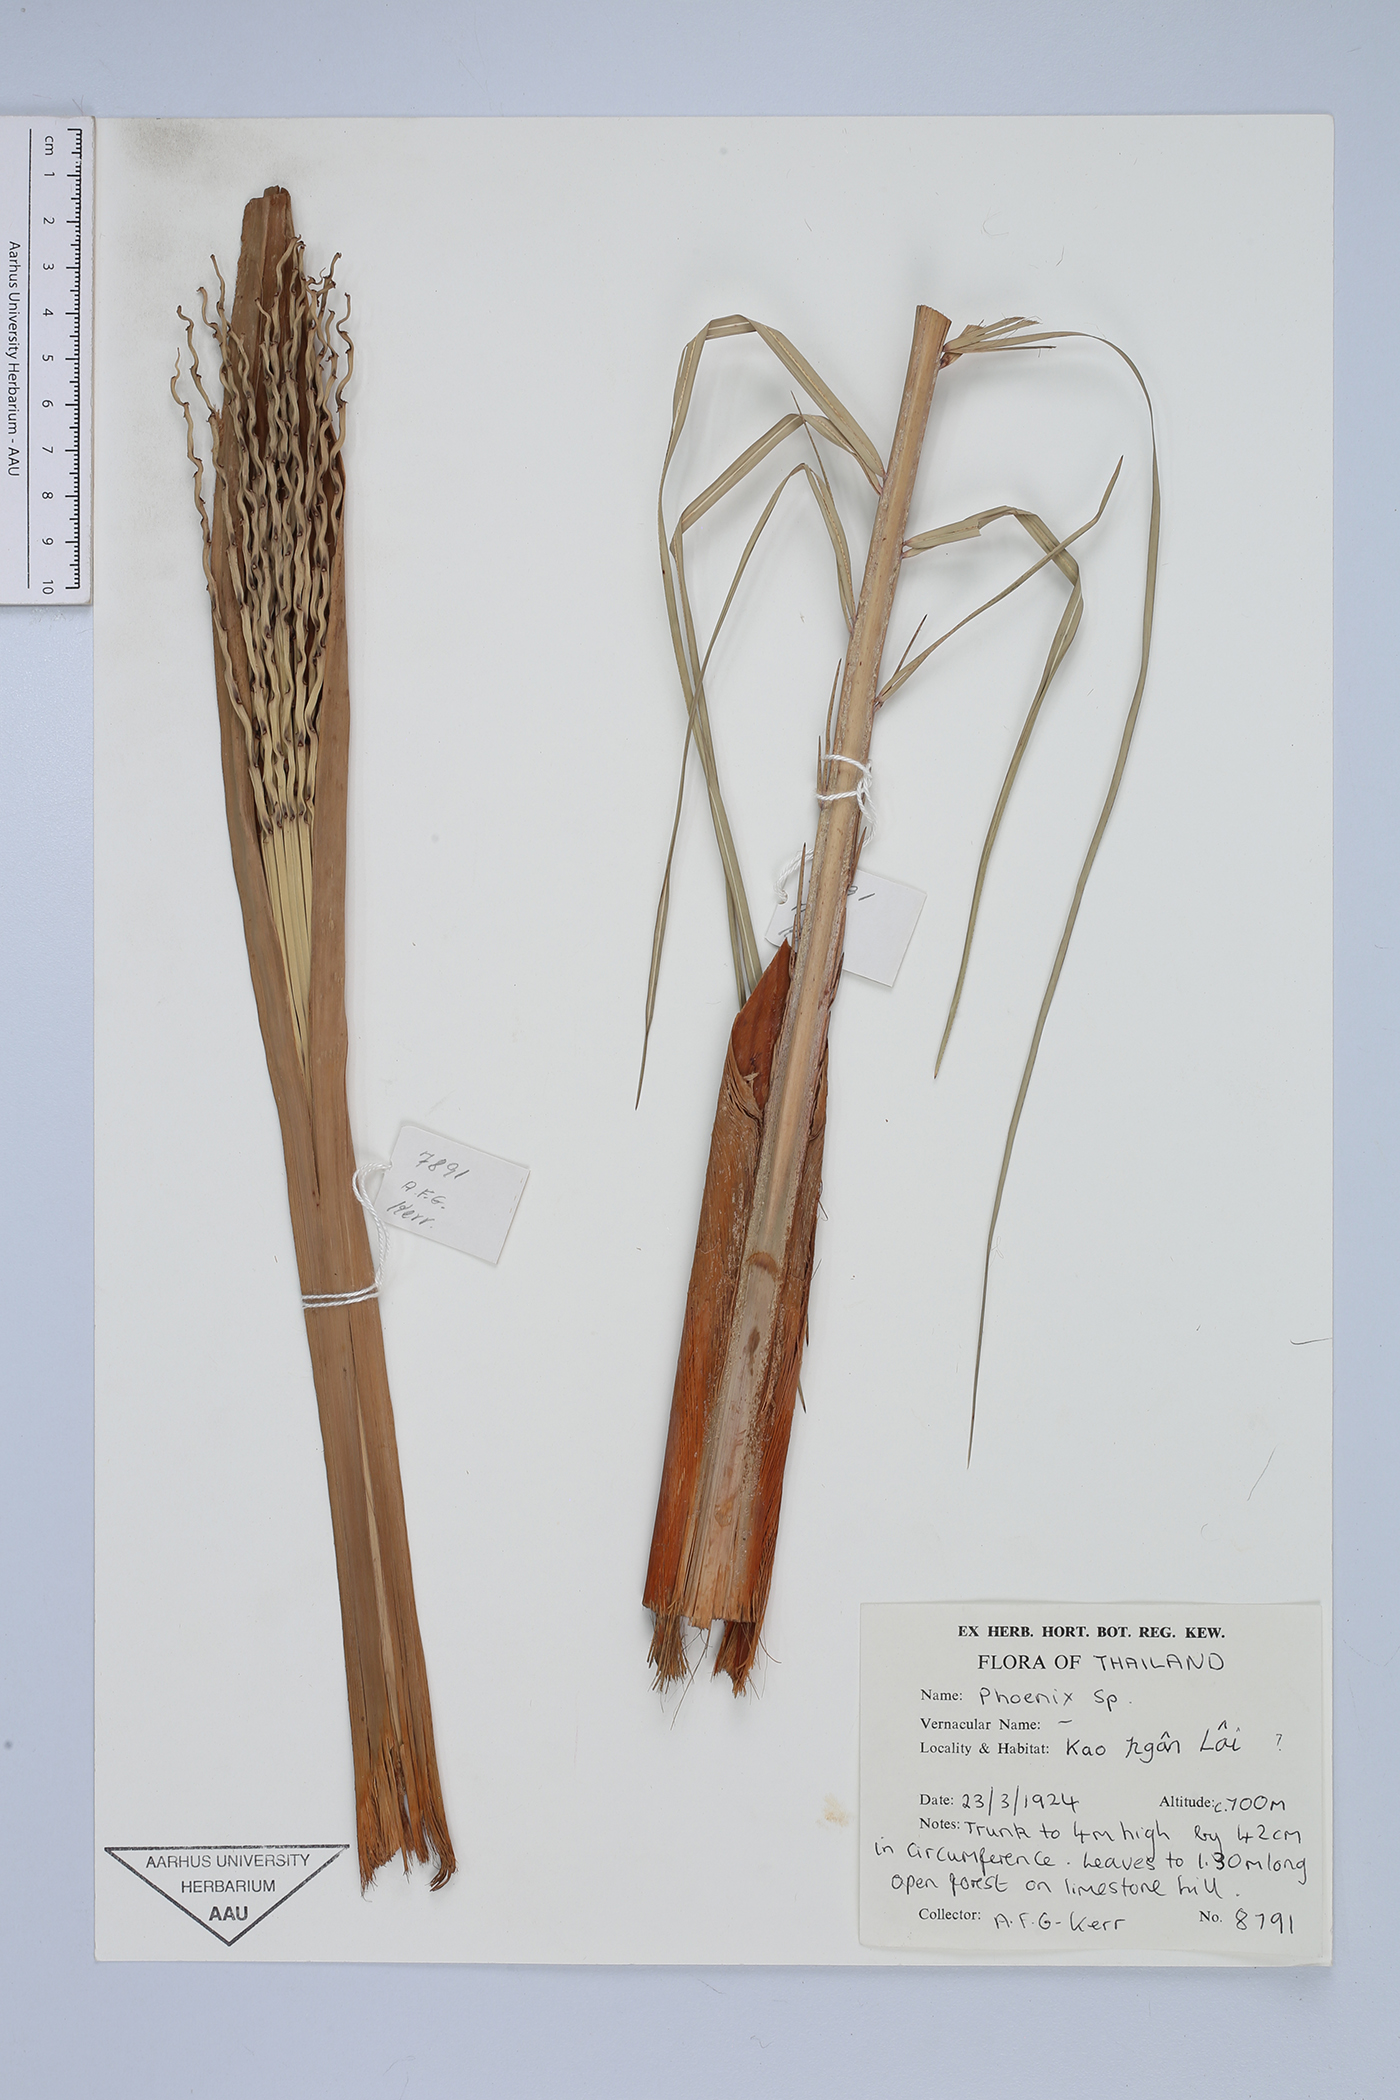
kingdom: Plantae
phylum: Tracheophyta
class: Liliopsida
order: Arecales
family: Arecaceae
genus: Phoenix
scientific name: Phoenix
